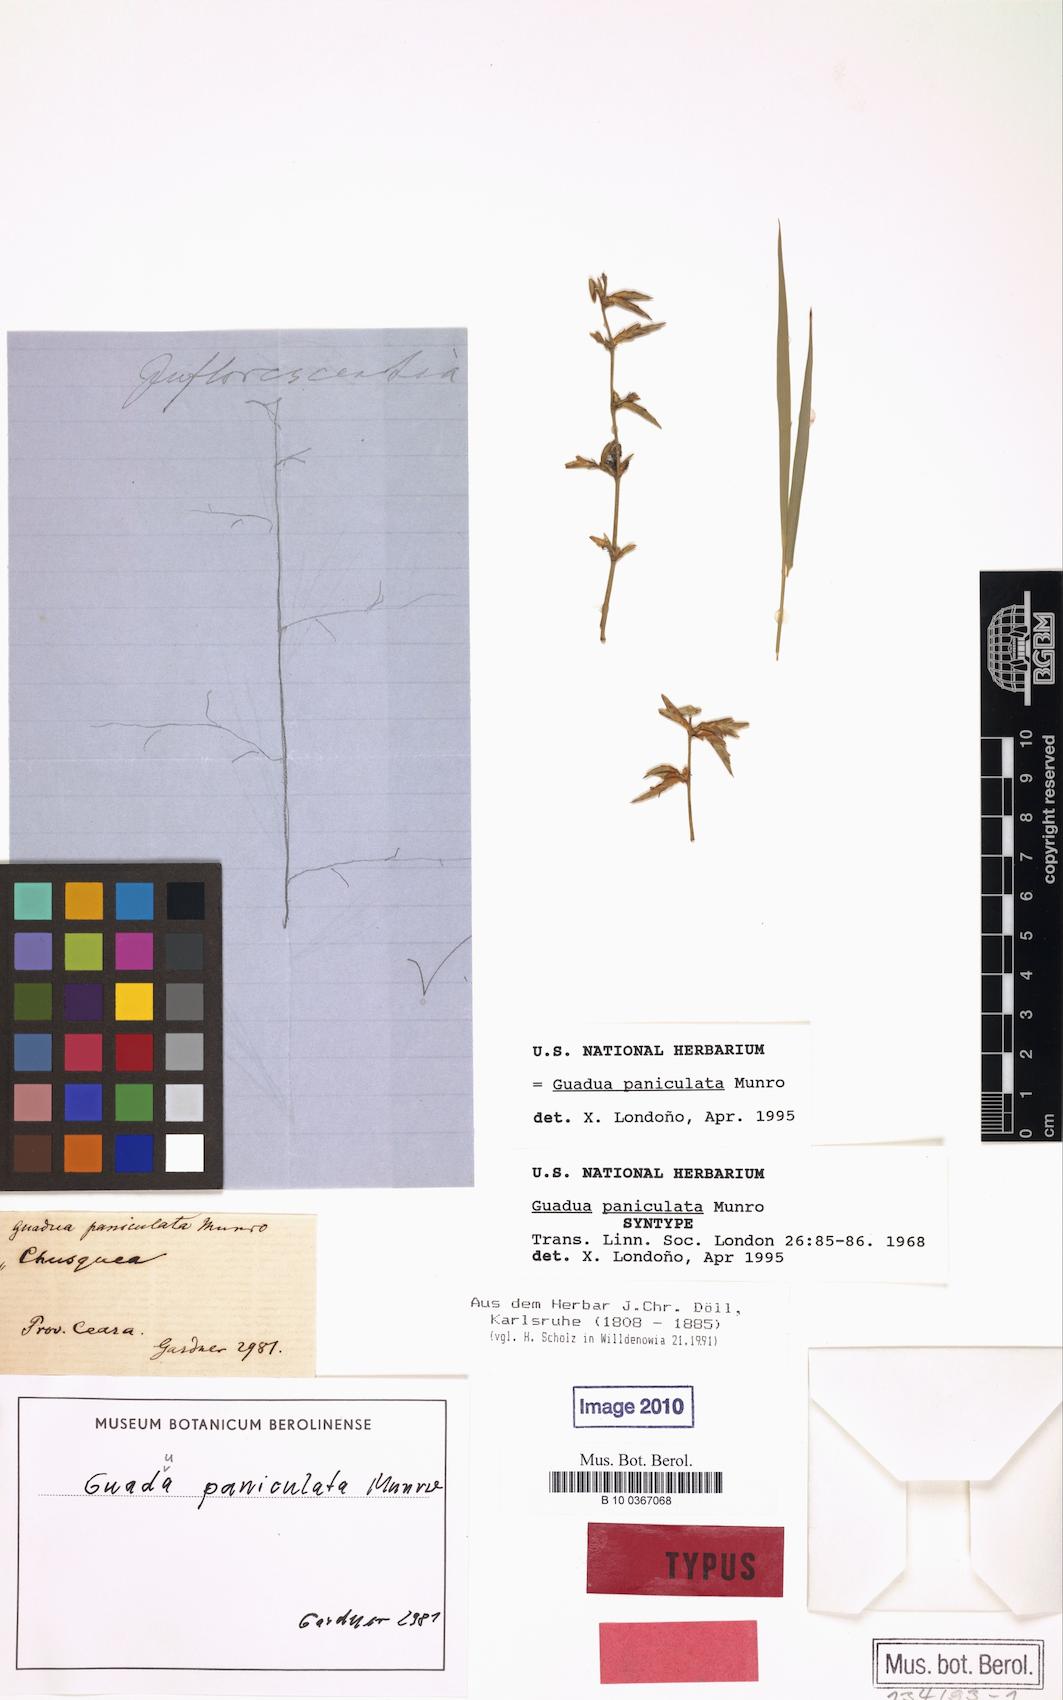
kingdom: Plantae
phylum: Tracheophyta
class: Liliopsida
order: Poales
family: Poaceae
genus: Guadua
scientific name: Guadua paniculata
